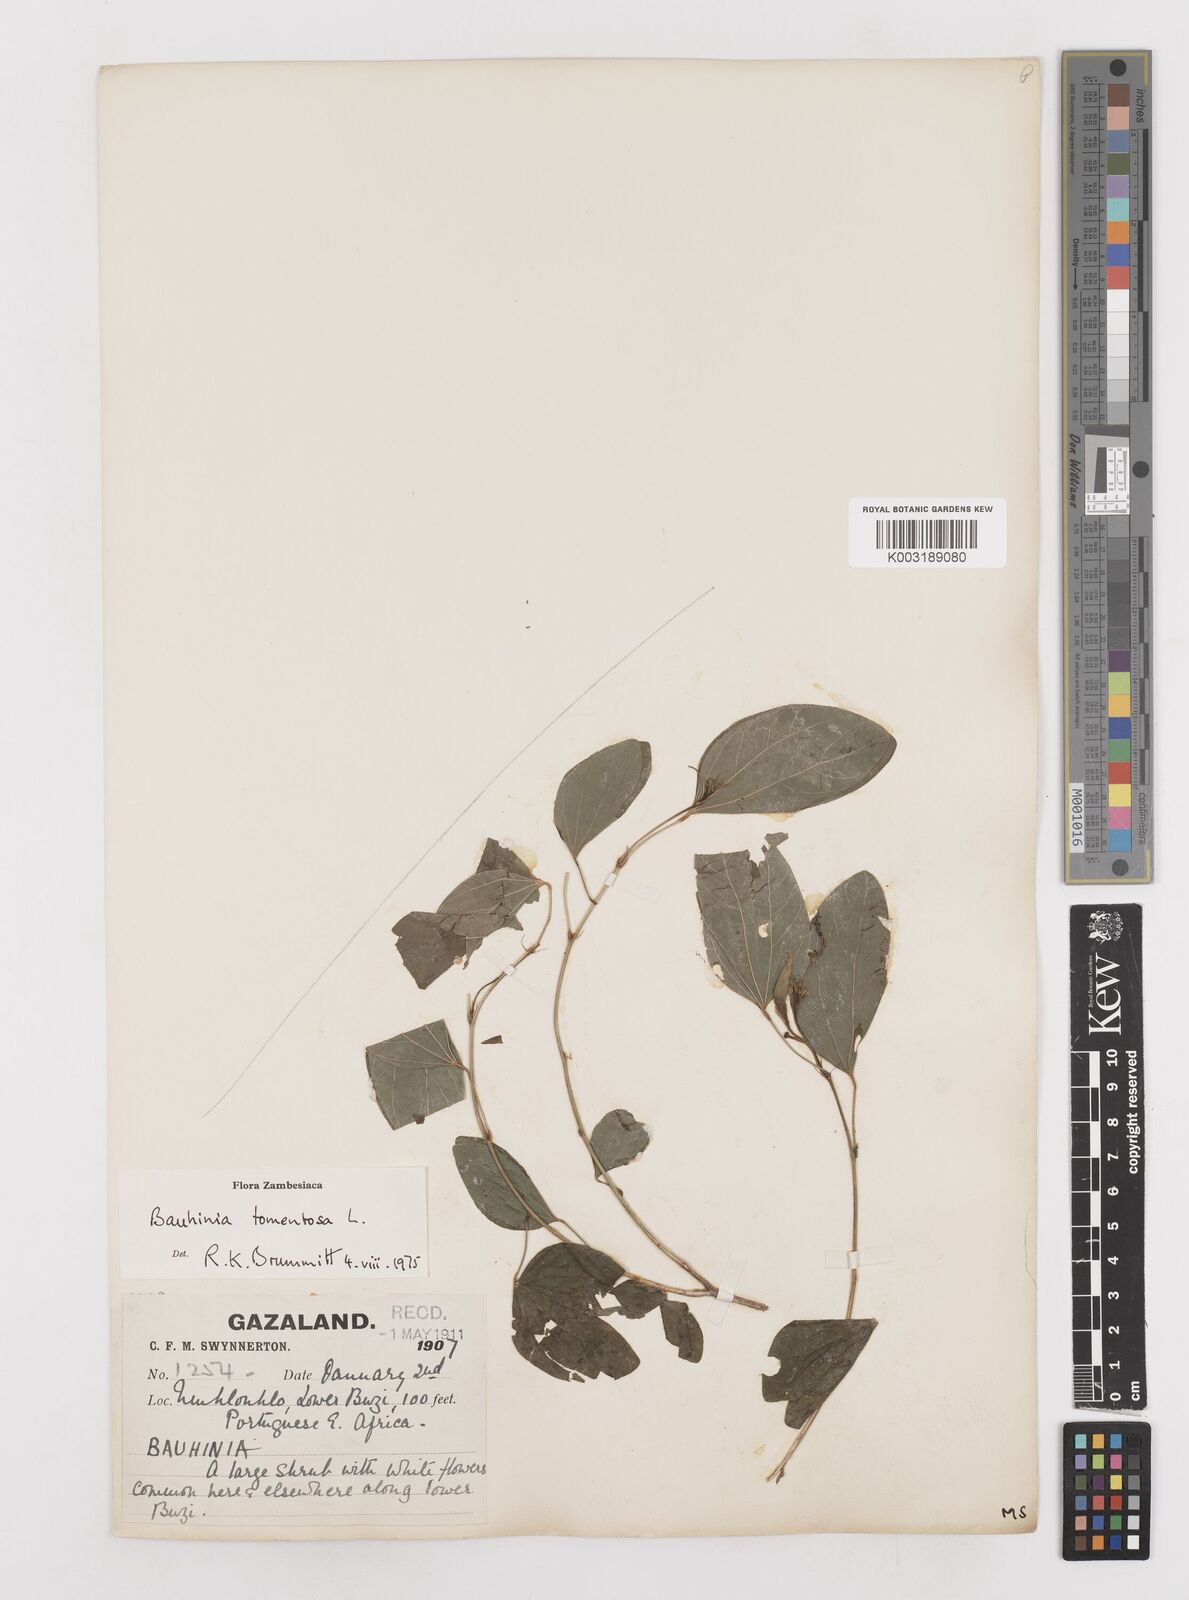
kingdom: Plantae
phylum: Tracheophyta
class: Magnoliopsida
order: Fabales
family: Fabaceae
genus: Bauhinia
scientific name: Bauhinia tomentosa
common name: Bell bauhinia
